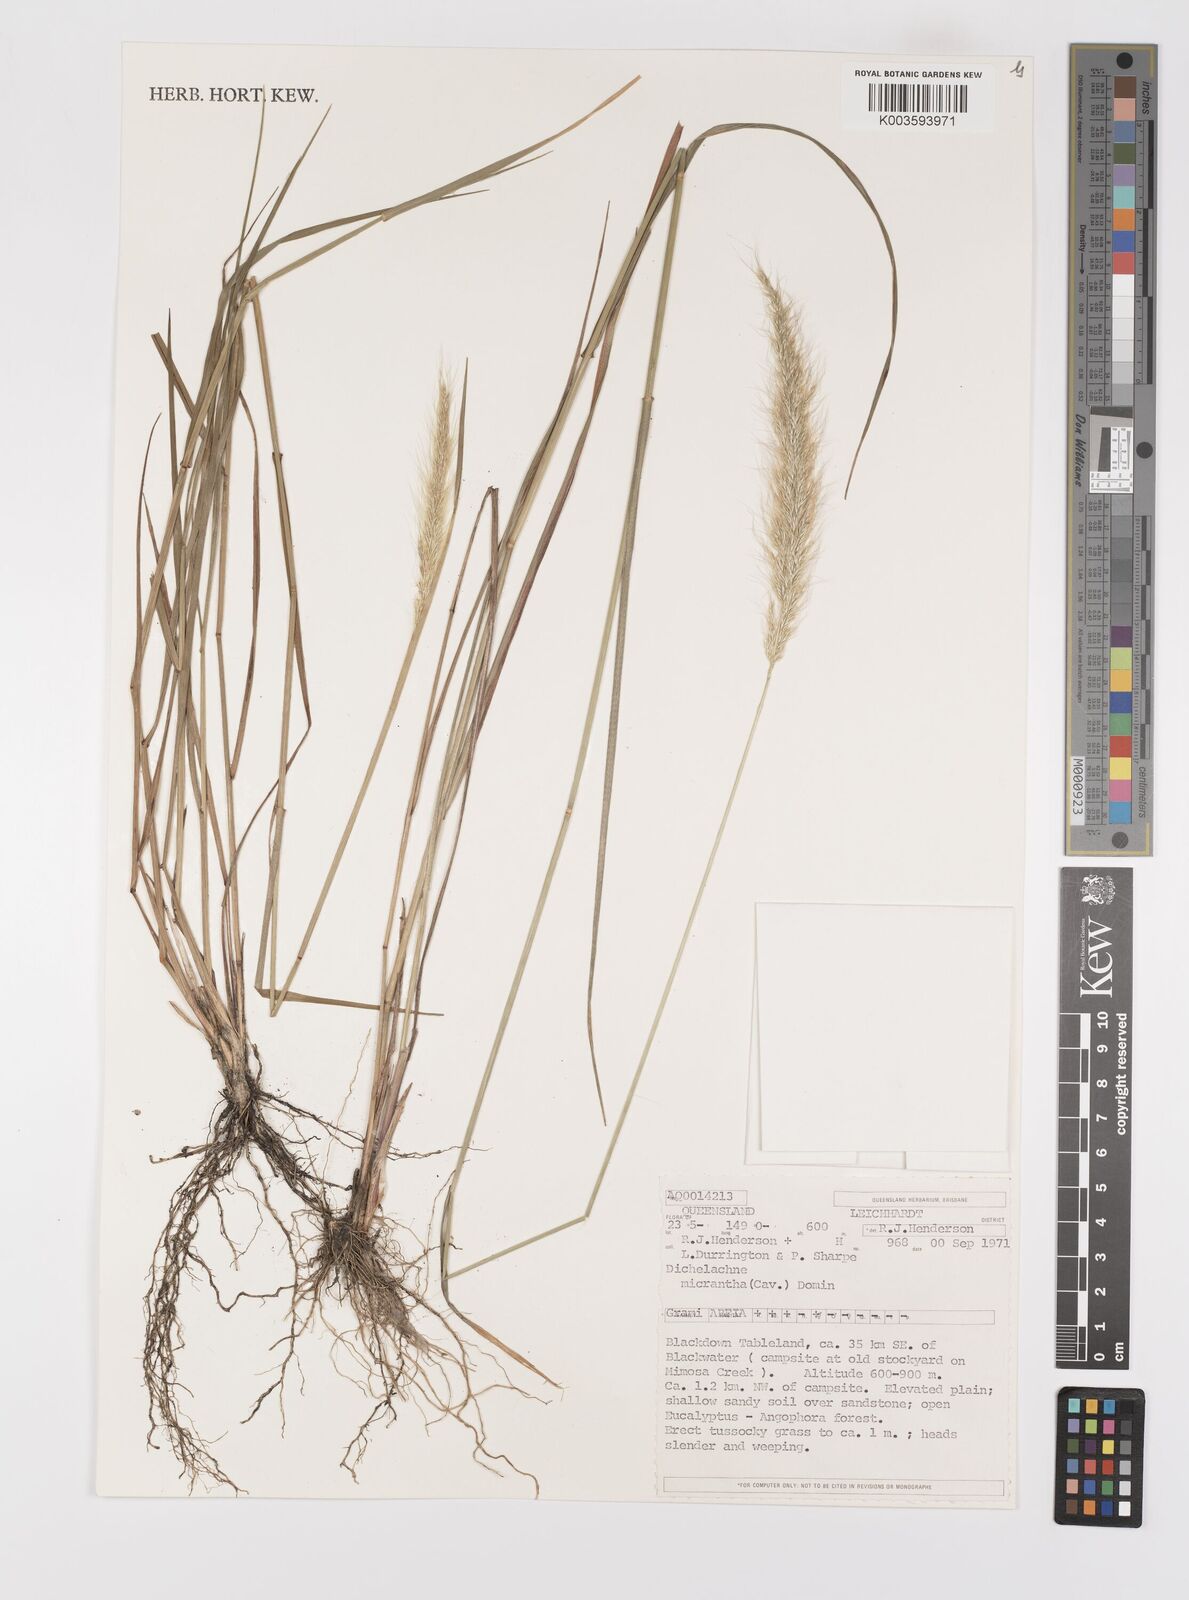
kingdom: Plantae
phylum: Tracheophyta
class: Liliopsida
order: Poales
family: Poaceae
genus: Dichelachne
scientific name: Dichelachne micrantha
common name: Plumegrass
